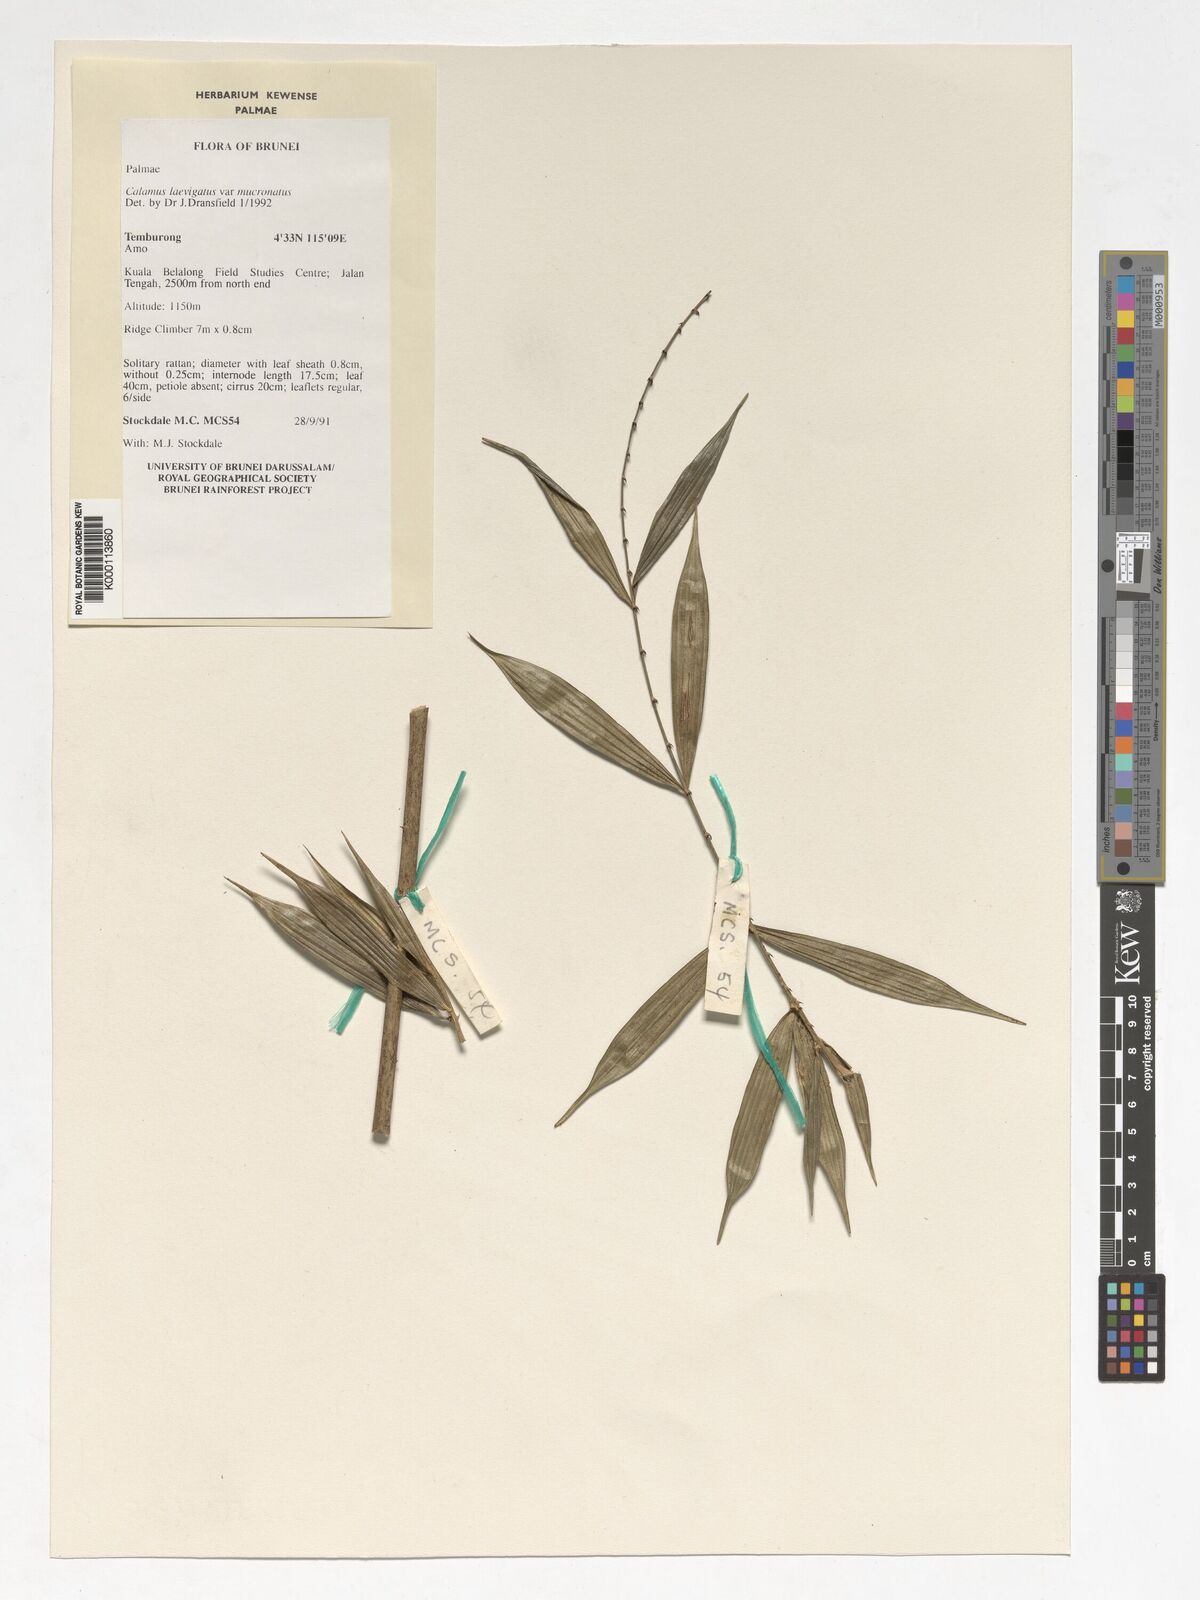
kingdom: Plantae
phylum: Tracheophyta
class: Liliopsida
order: Arecales
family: Arecaceae
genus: Calamus
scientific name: Calamus plicatus
